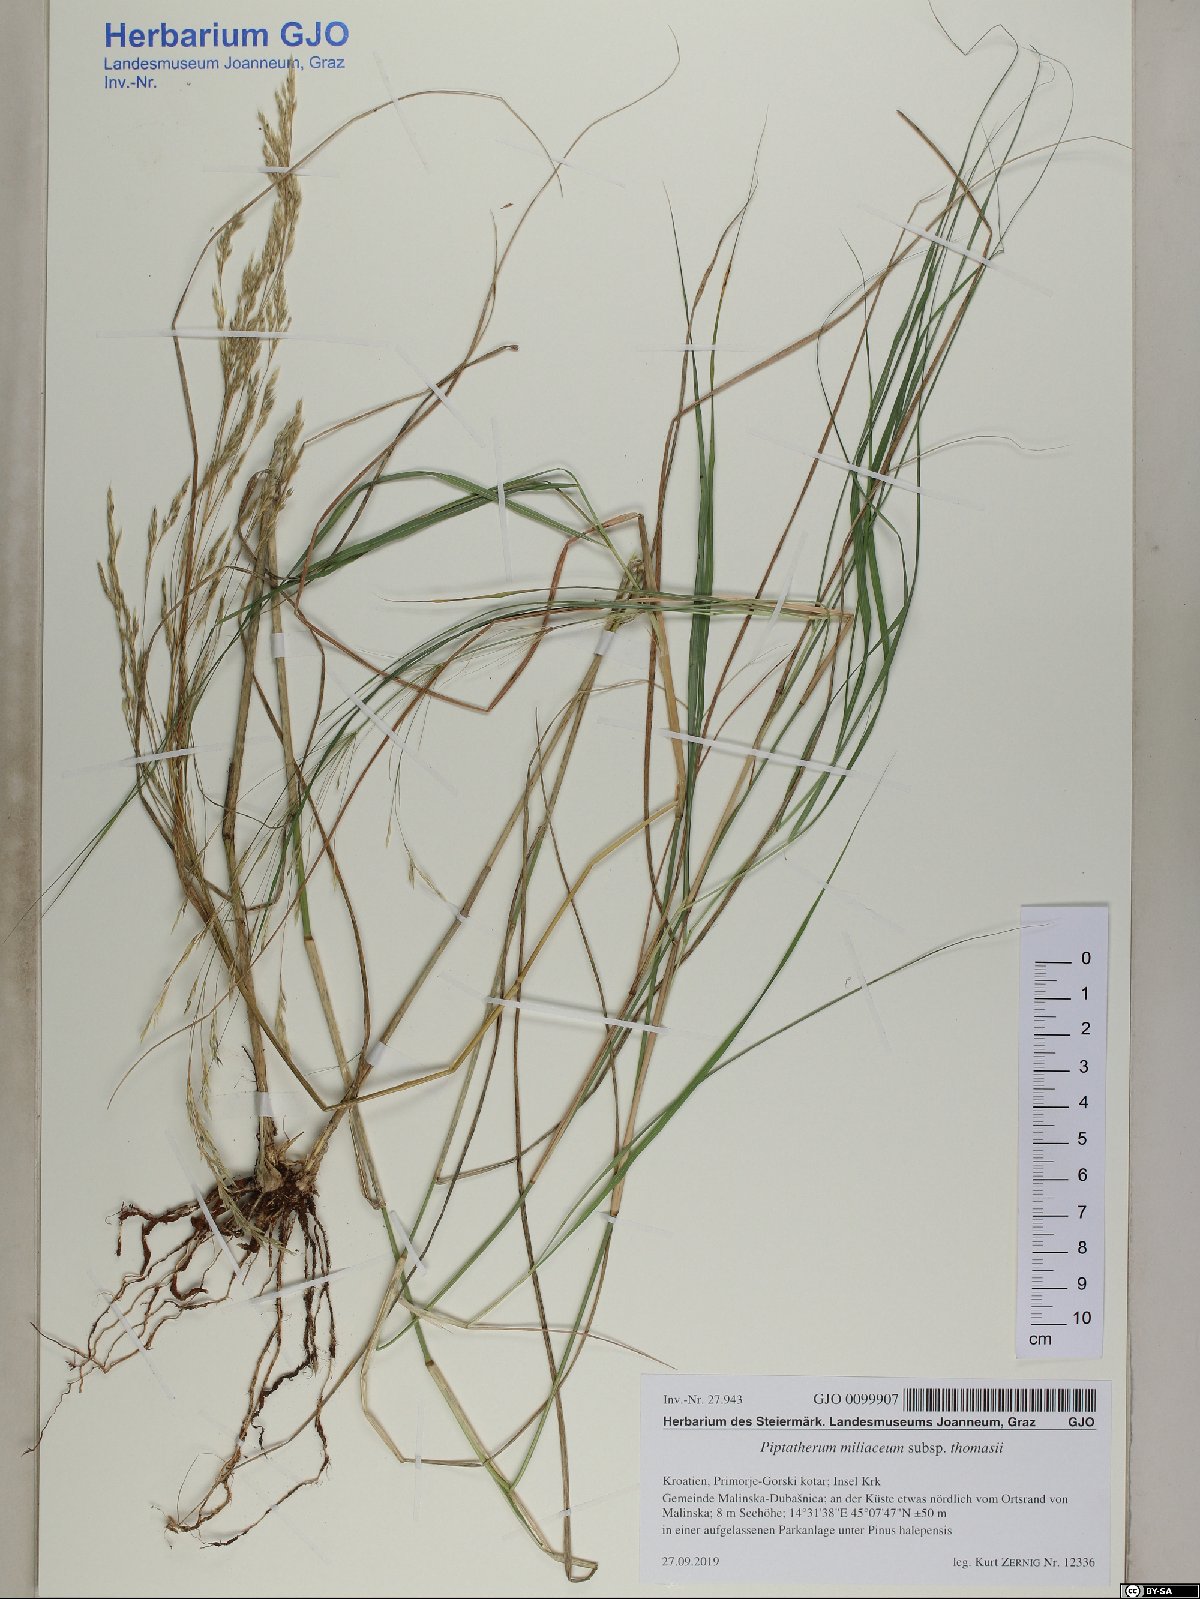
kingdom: Plantae
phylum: Tracheophyta
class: Liliopsida
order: Poales
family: Poaceae
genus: Oloptum
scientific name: Oloptum thomasii
